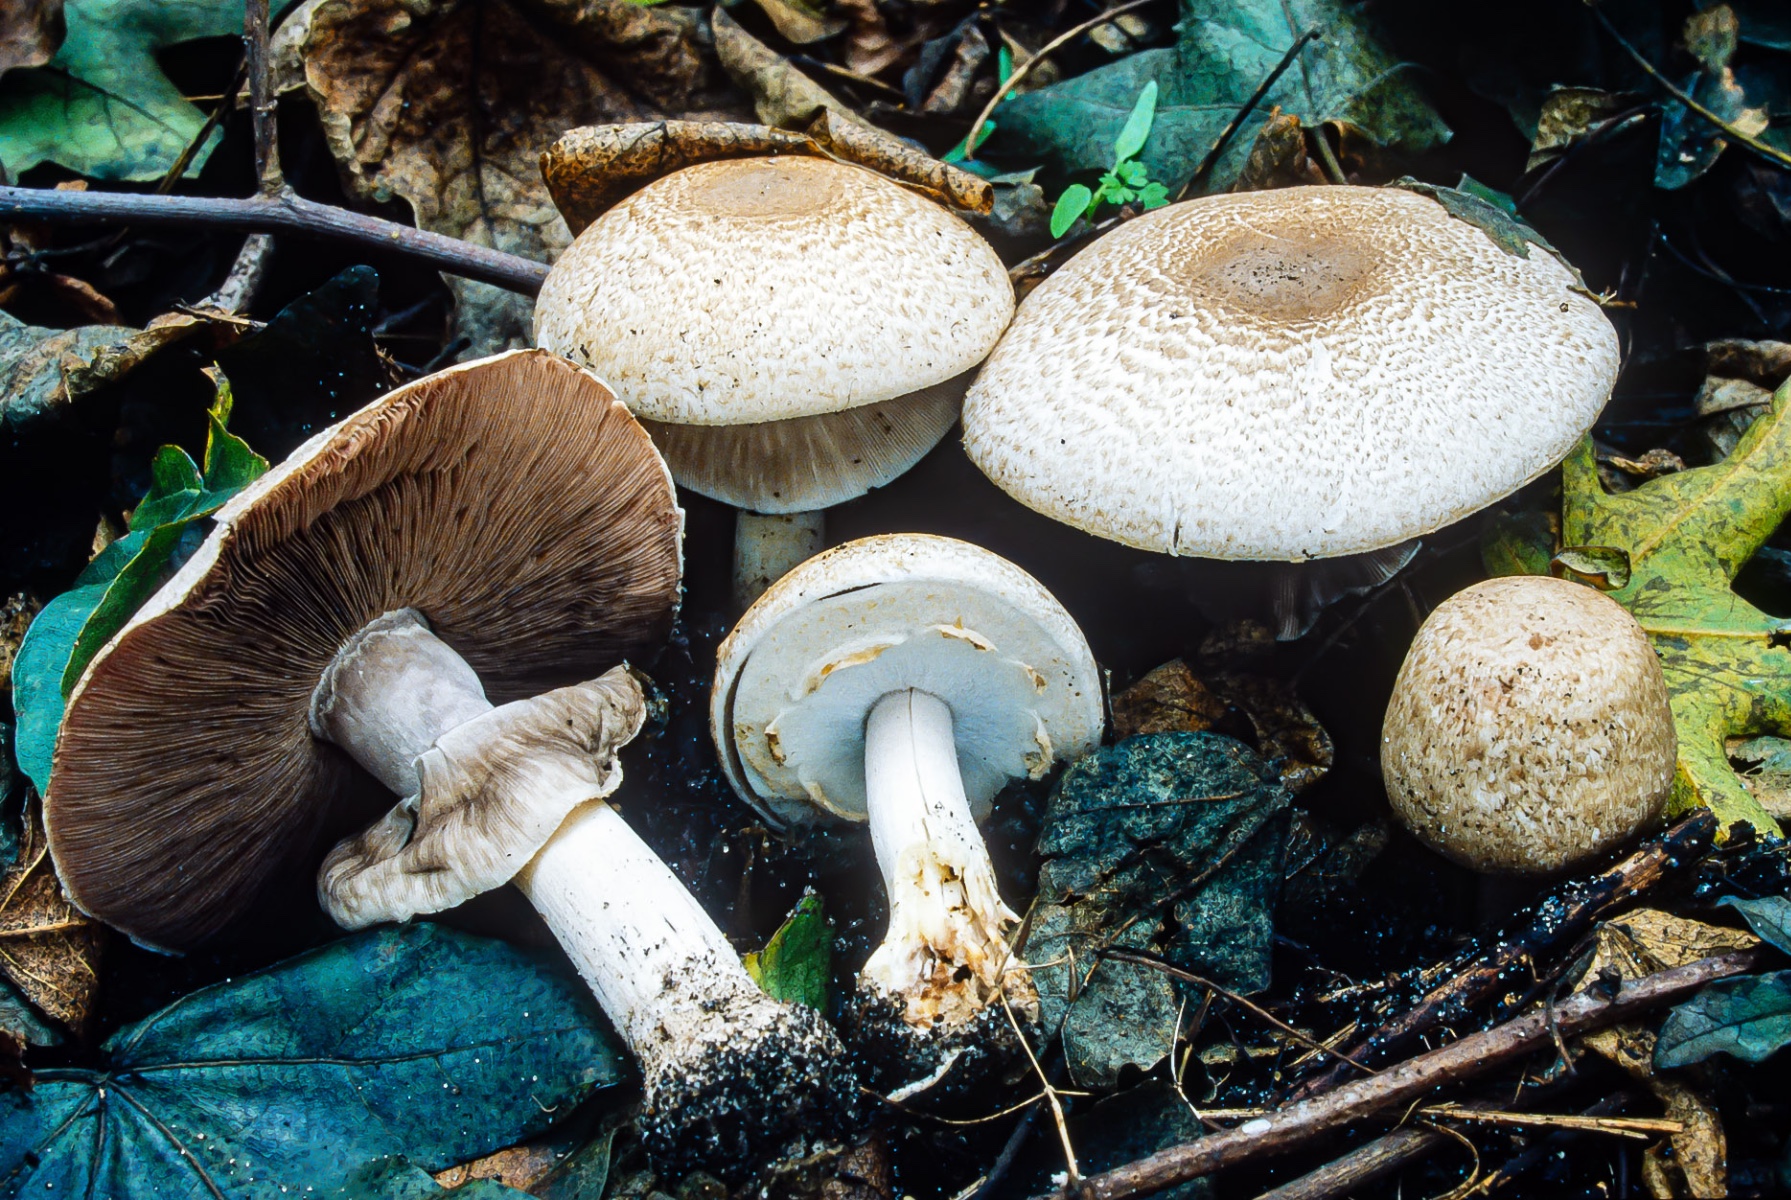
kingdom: Fungi
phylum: Basidiomycota
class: Agaricomycetes
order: Agaricales
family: Agaricaceae
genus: Agaricus
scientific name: Agaricus phaeolepidotus
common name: agerhøne-champignon
